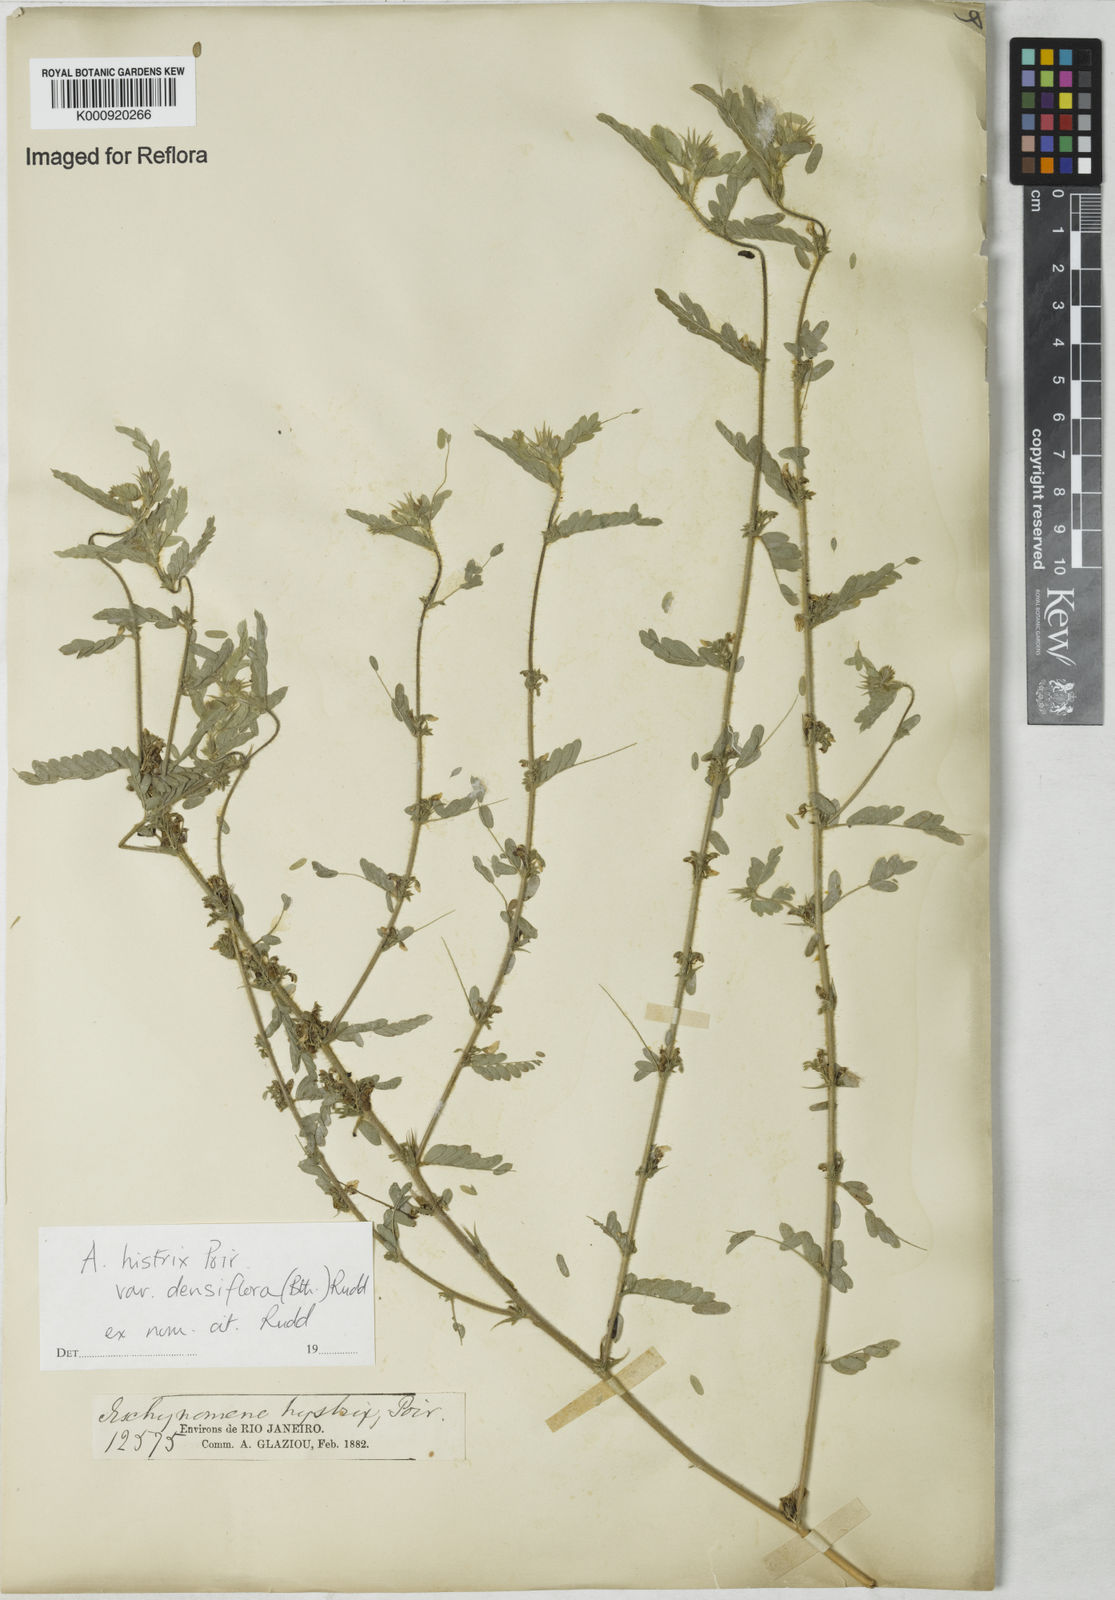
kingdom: Plantae
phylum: Tracheophyta
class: Magnoliopsida
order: Fabales
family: Fabaceae
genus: Ctenodon
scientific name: Ctenodon histrix
